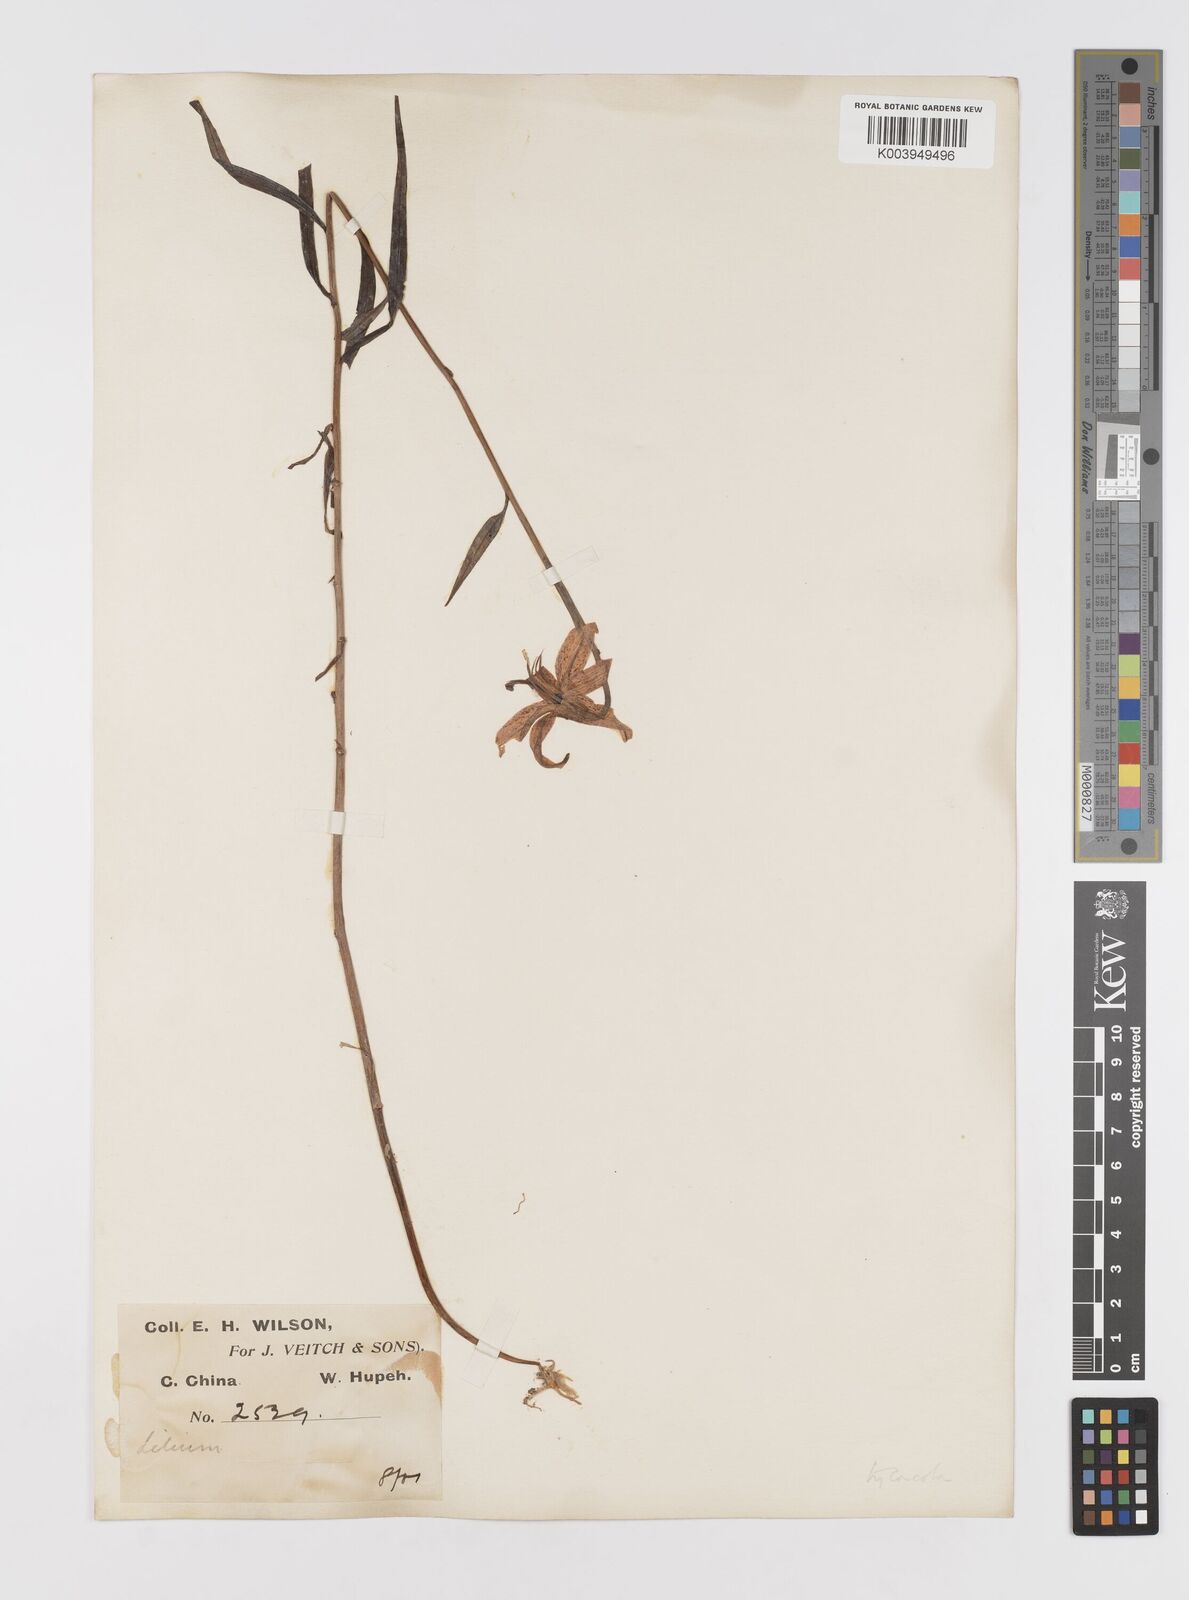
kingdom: Plantae
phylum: Tracheophyta
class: Liliopsida
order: Liliales
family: Liliaceae
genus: Lilium
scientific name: Lilium fargesii
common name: Farges's lily
